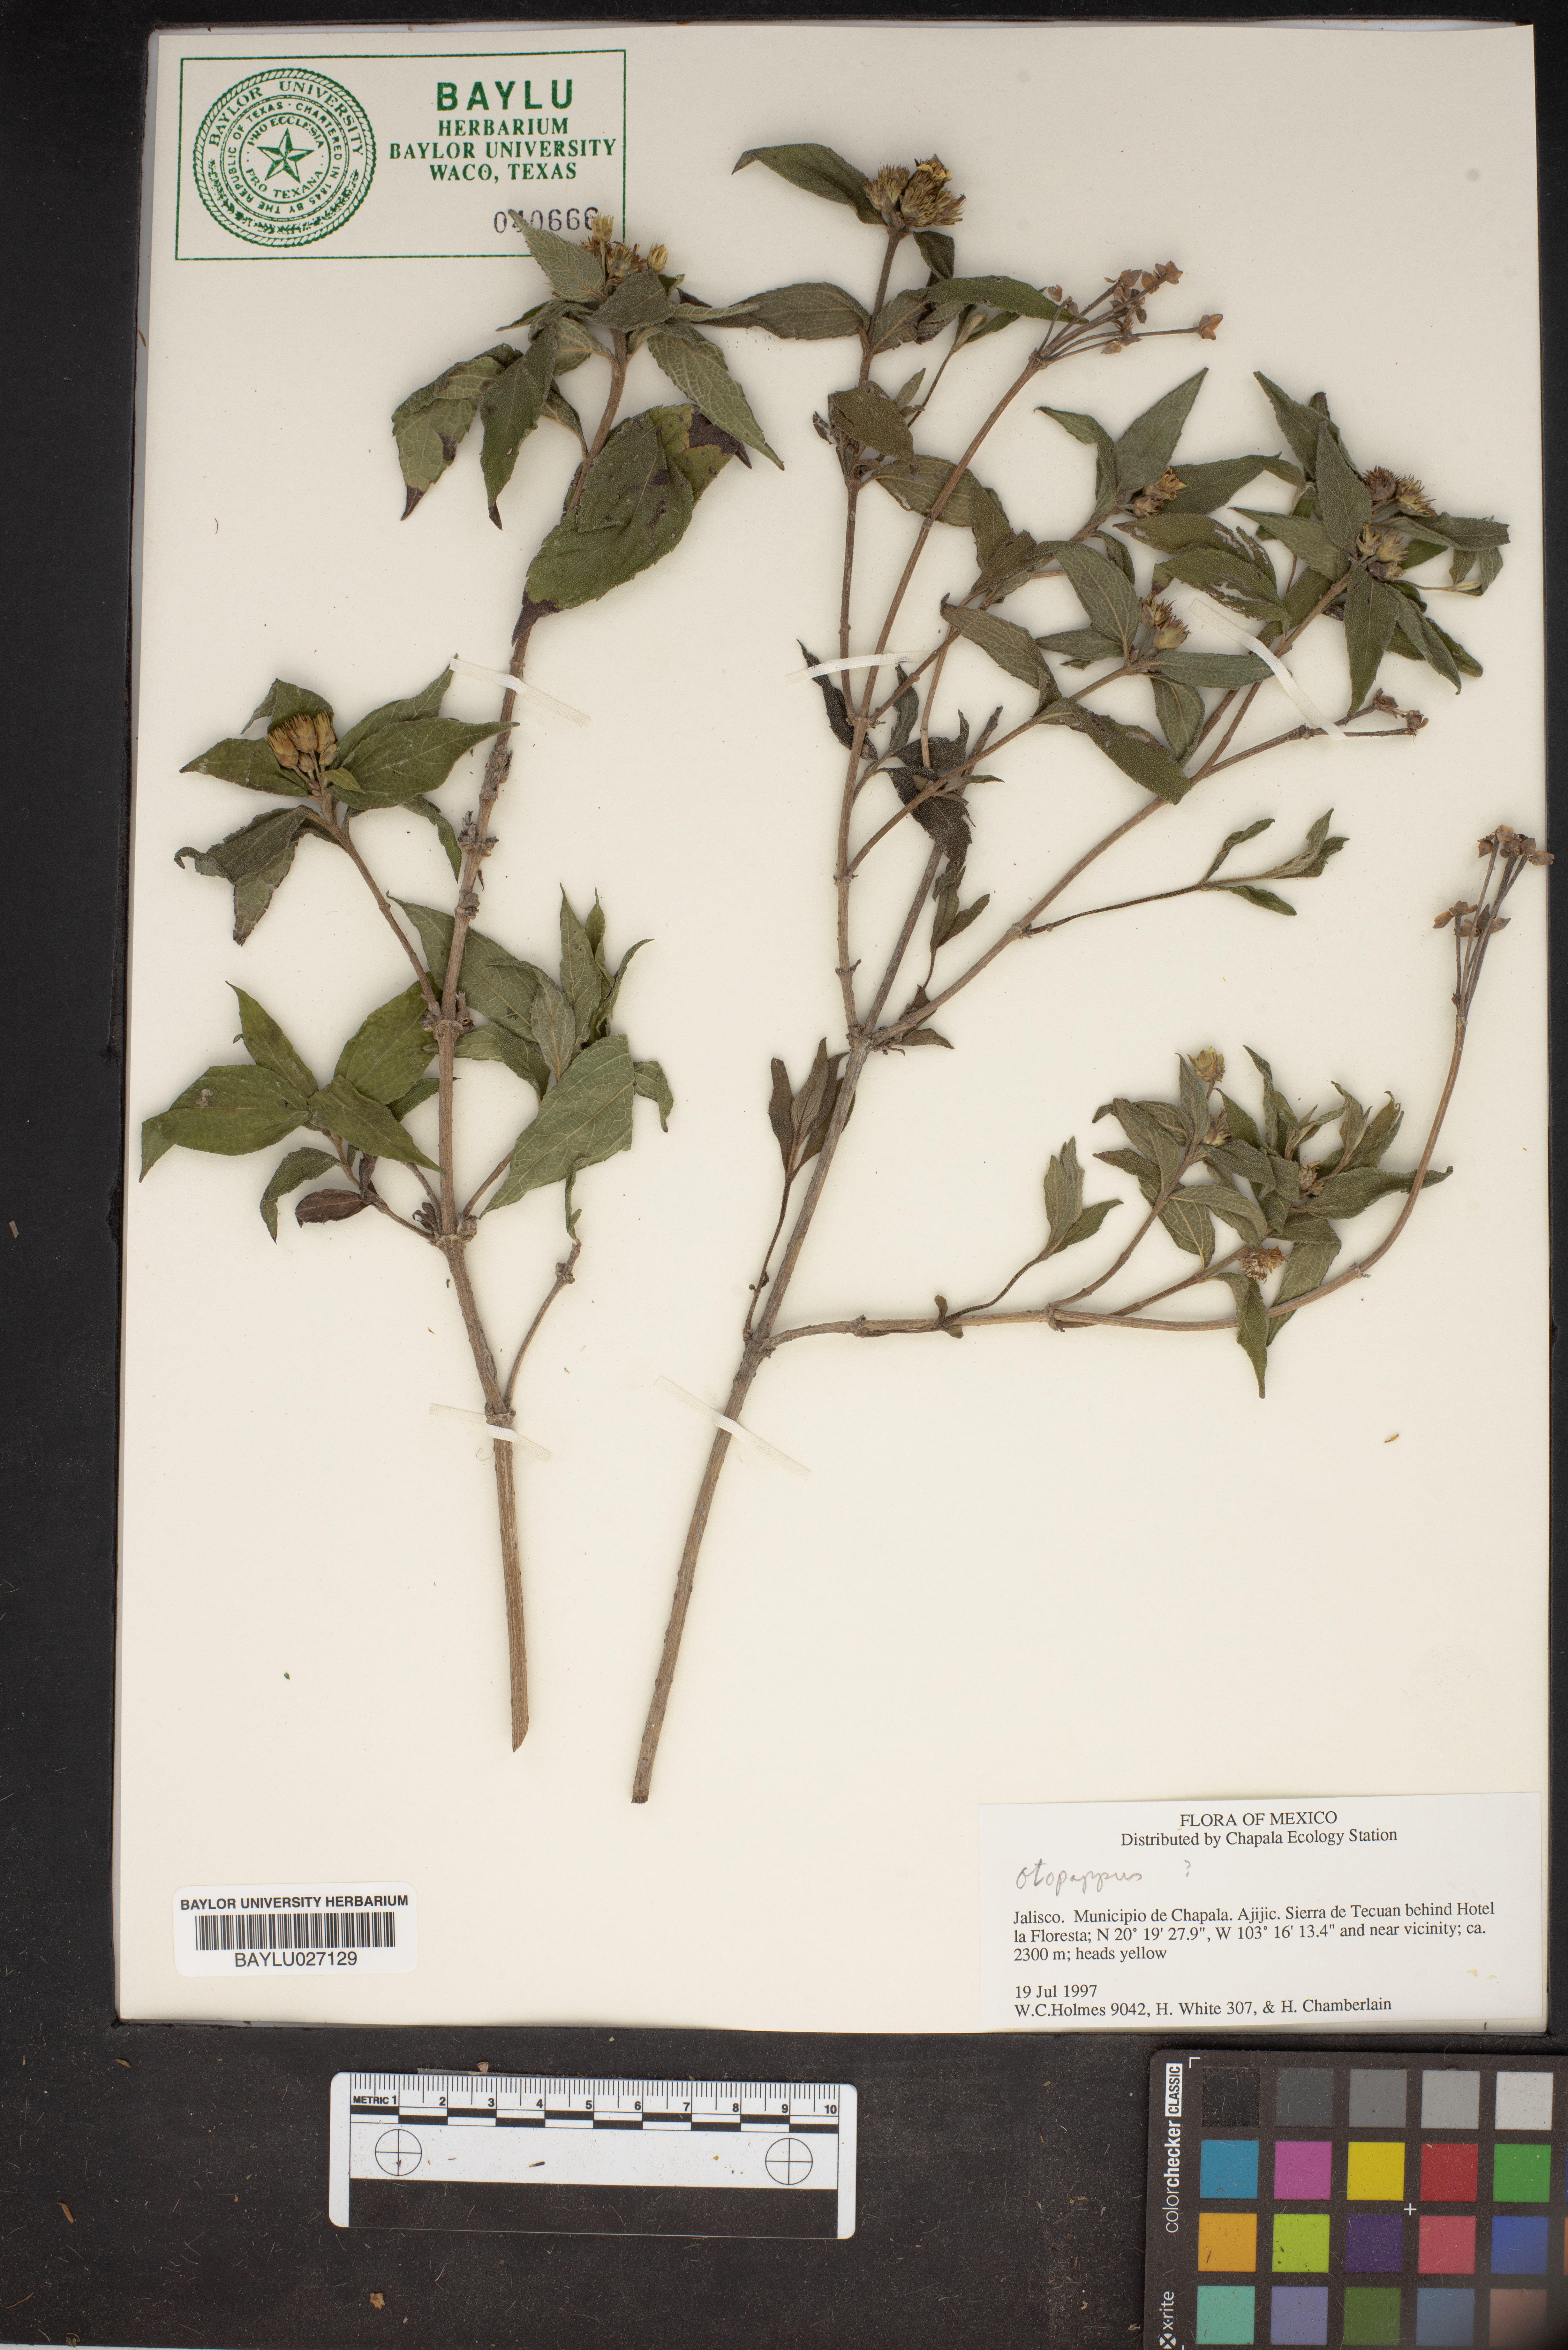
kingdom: Plantae
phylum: Tracheophyta
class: Magnoliopsida
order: Asterales
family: Asteraceae
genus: Otopappus
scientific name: Otopappus
